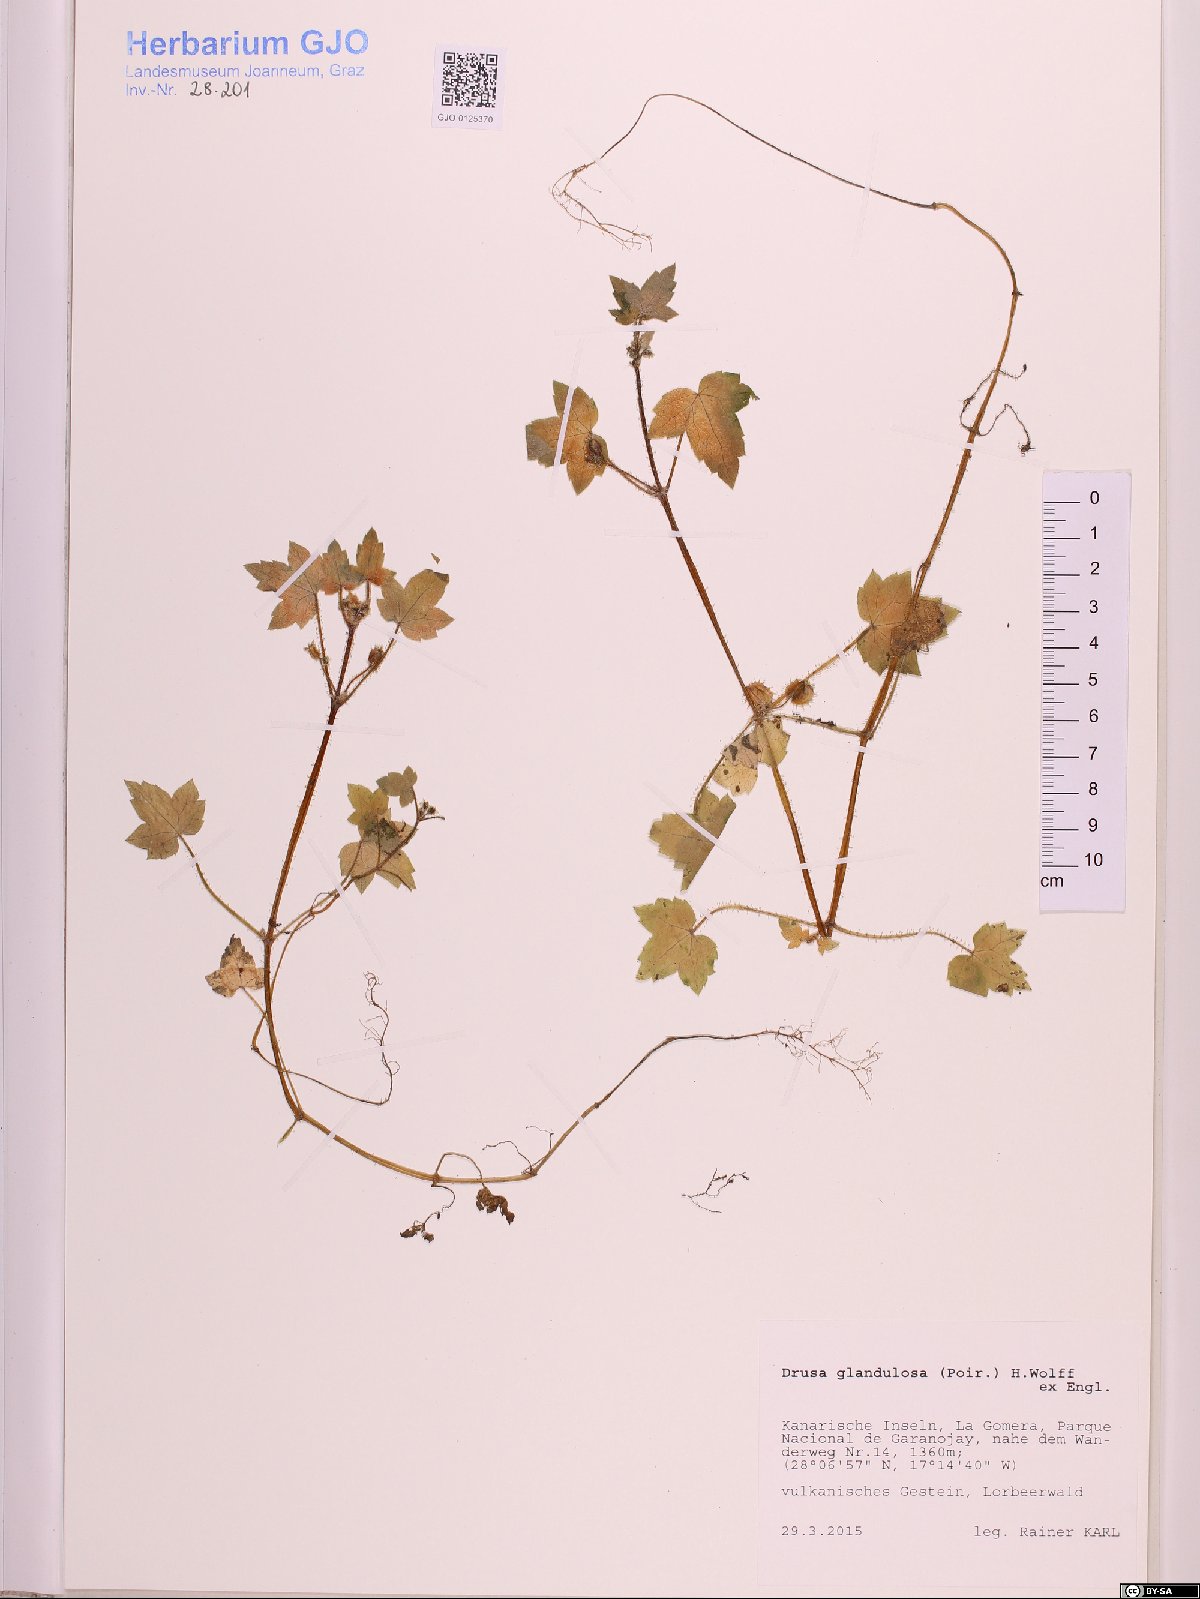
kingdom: Plantae
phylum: Tracheophyta
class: Magnoliopsida
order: Apiales
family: Apiaceae
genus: Drusa
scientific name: Drusa glandulosa
